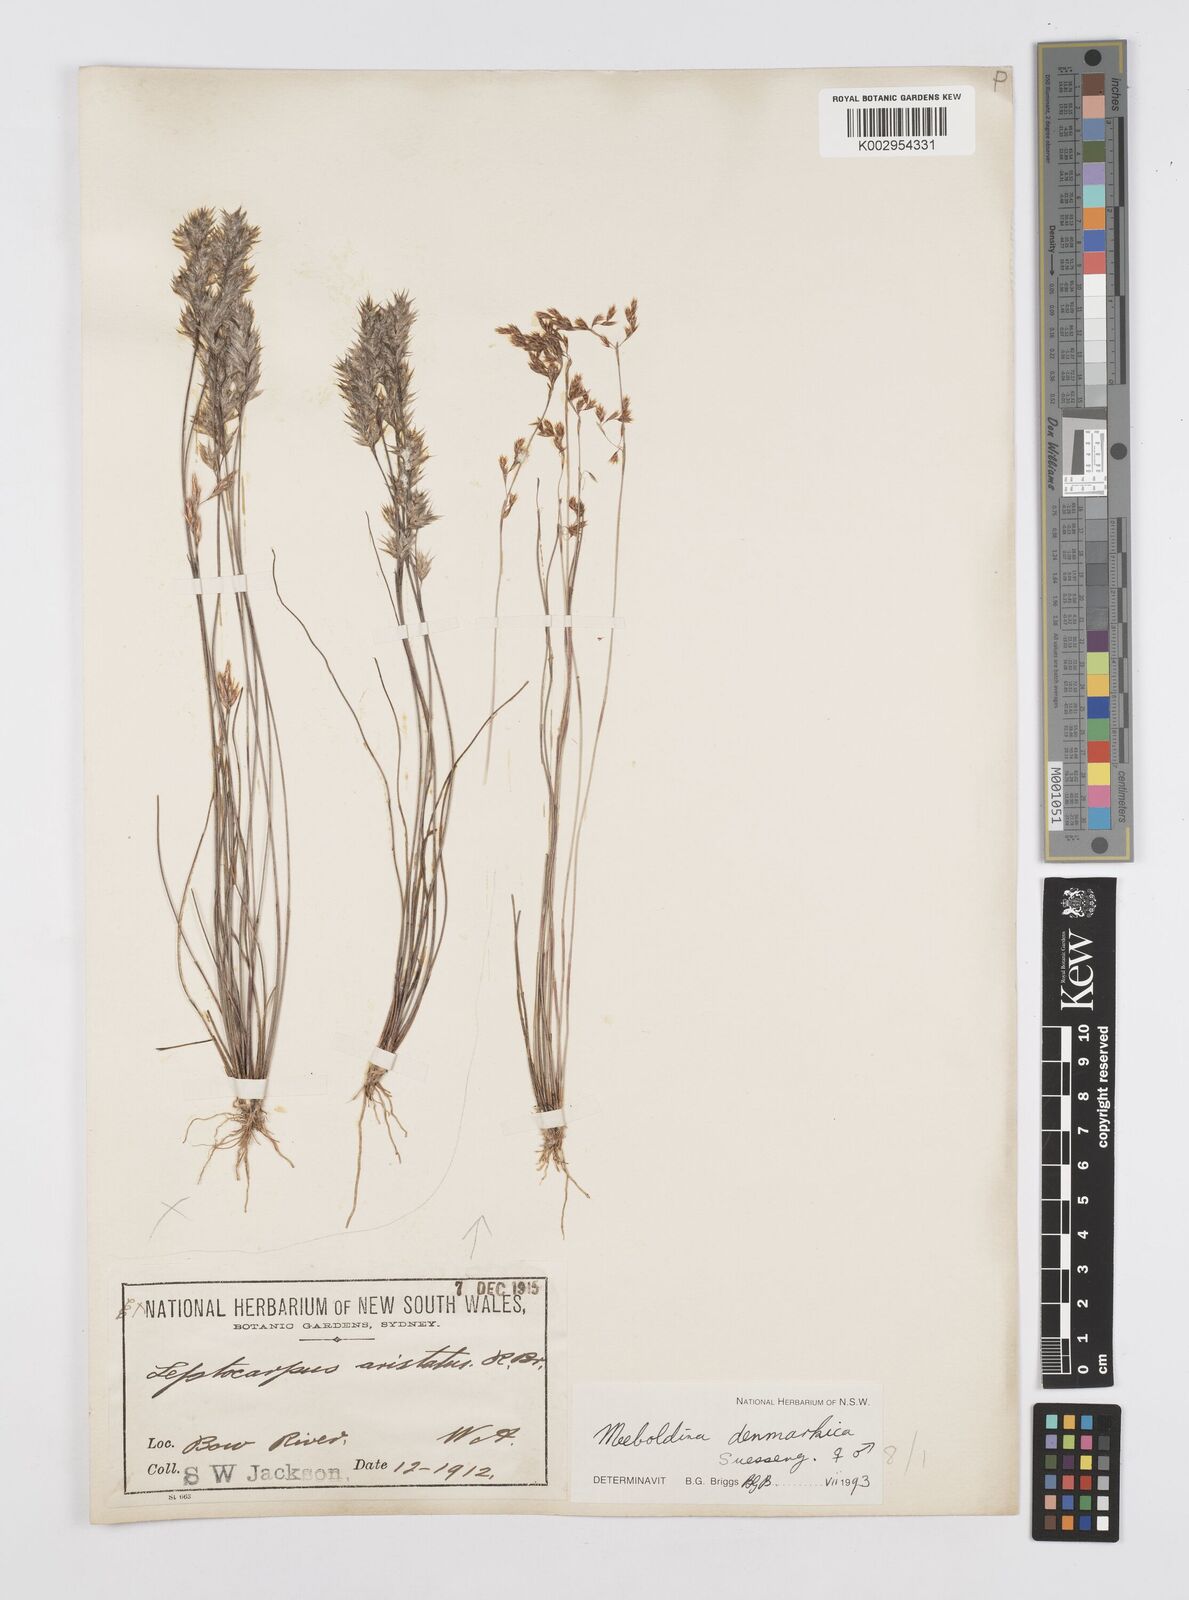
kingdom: Plantae
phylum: Tracheophyta
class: Liliopsida
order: Poales
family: Restionaceae
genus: Leptocarpus
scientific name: Leptocarpus denmarkicus
